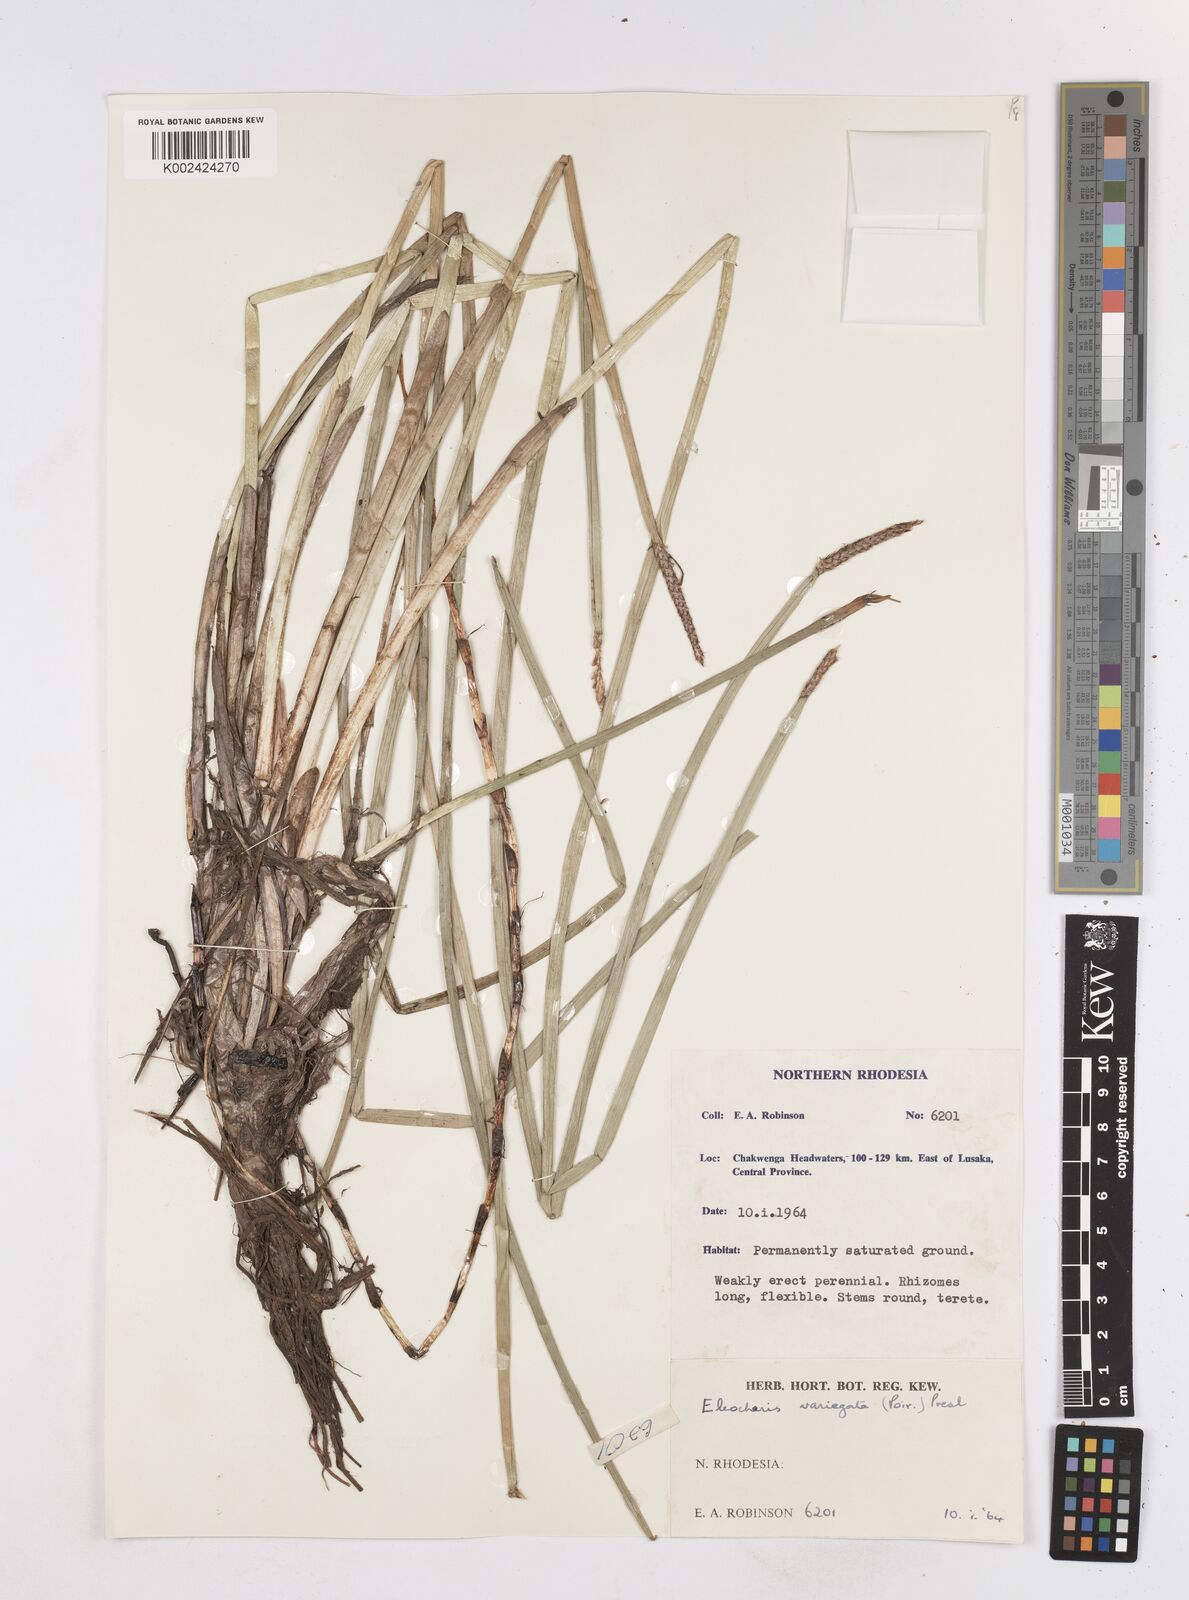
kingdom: Plantae
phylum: Tracheophyta
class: Liliopsida
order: Poales
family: Cyperaceae
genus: Eleocharis
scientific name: Eleocharis variegata
